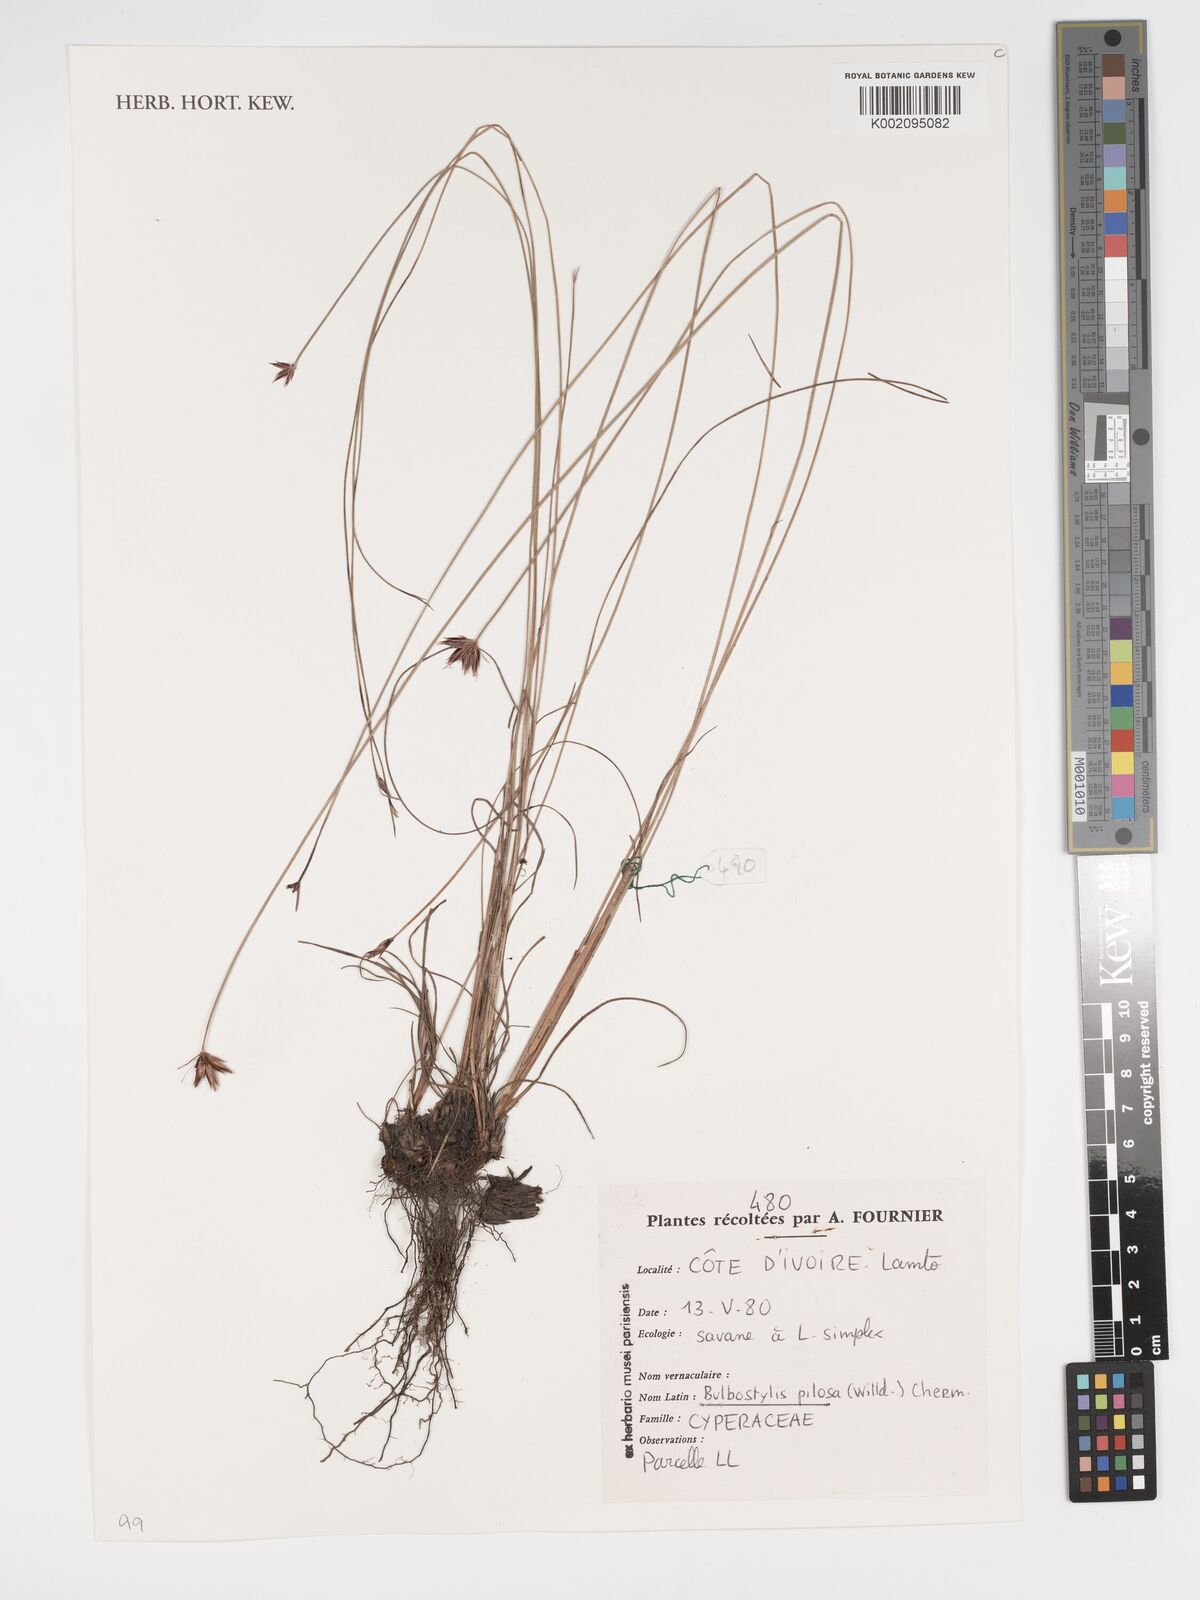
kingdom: Plantae
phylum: Tracheophyta
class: Liliopsida
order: Poales
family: Cyperaceae
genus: Bulbostylis
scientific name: Bulbostylis pilosa
